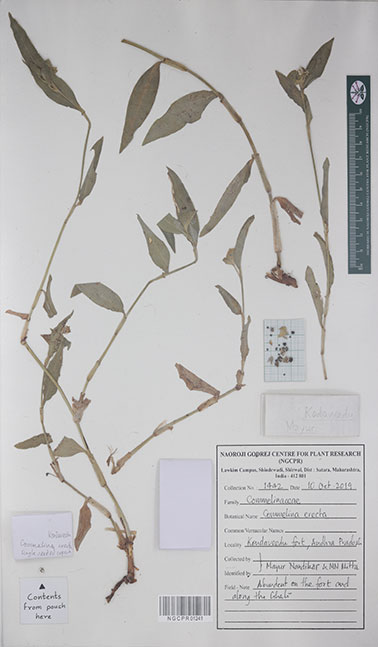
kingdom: Plantae
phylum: Tracheophyta
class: Liliopsida
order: Commelinales
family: Commelinaceae
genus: Commelina
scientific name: Commelina erecta
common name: Blousel blommetjie
